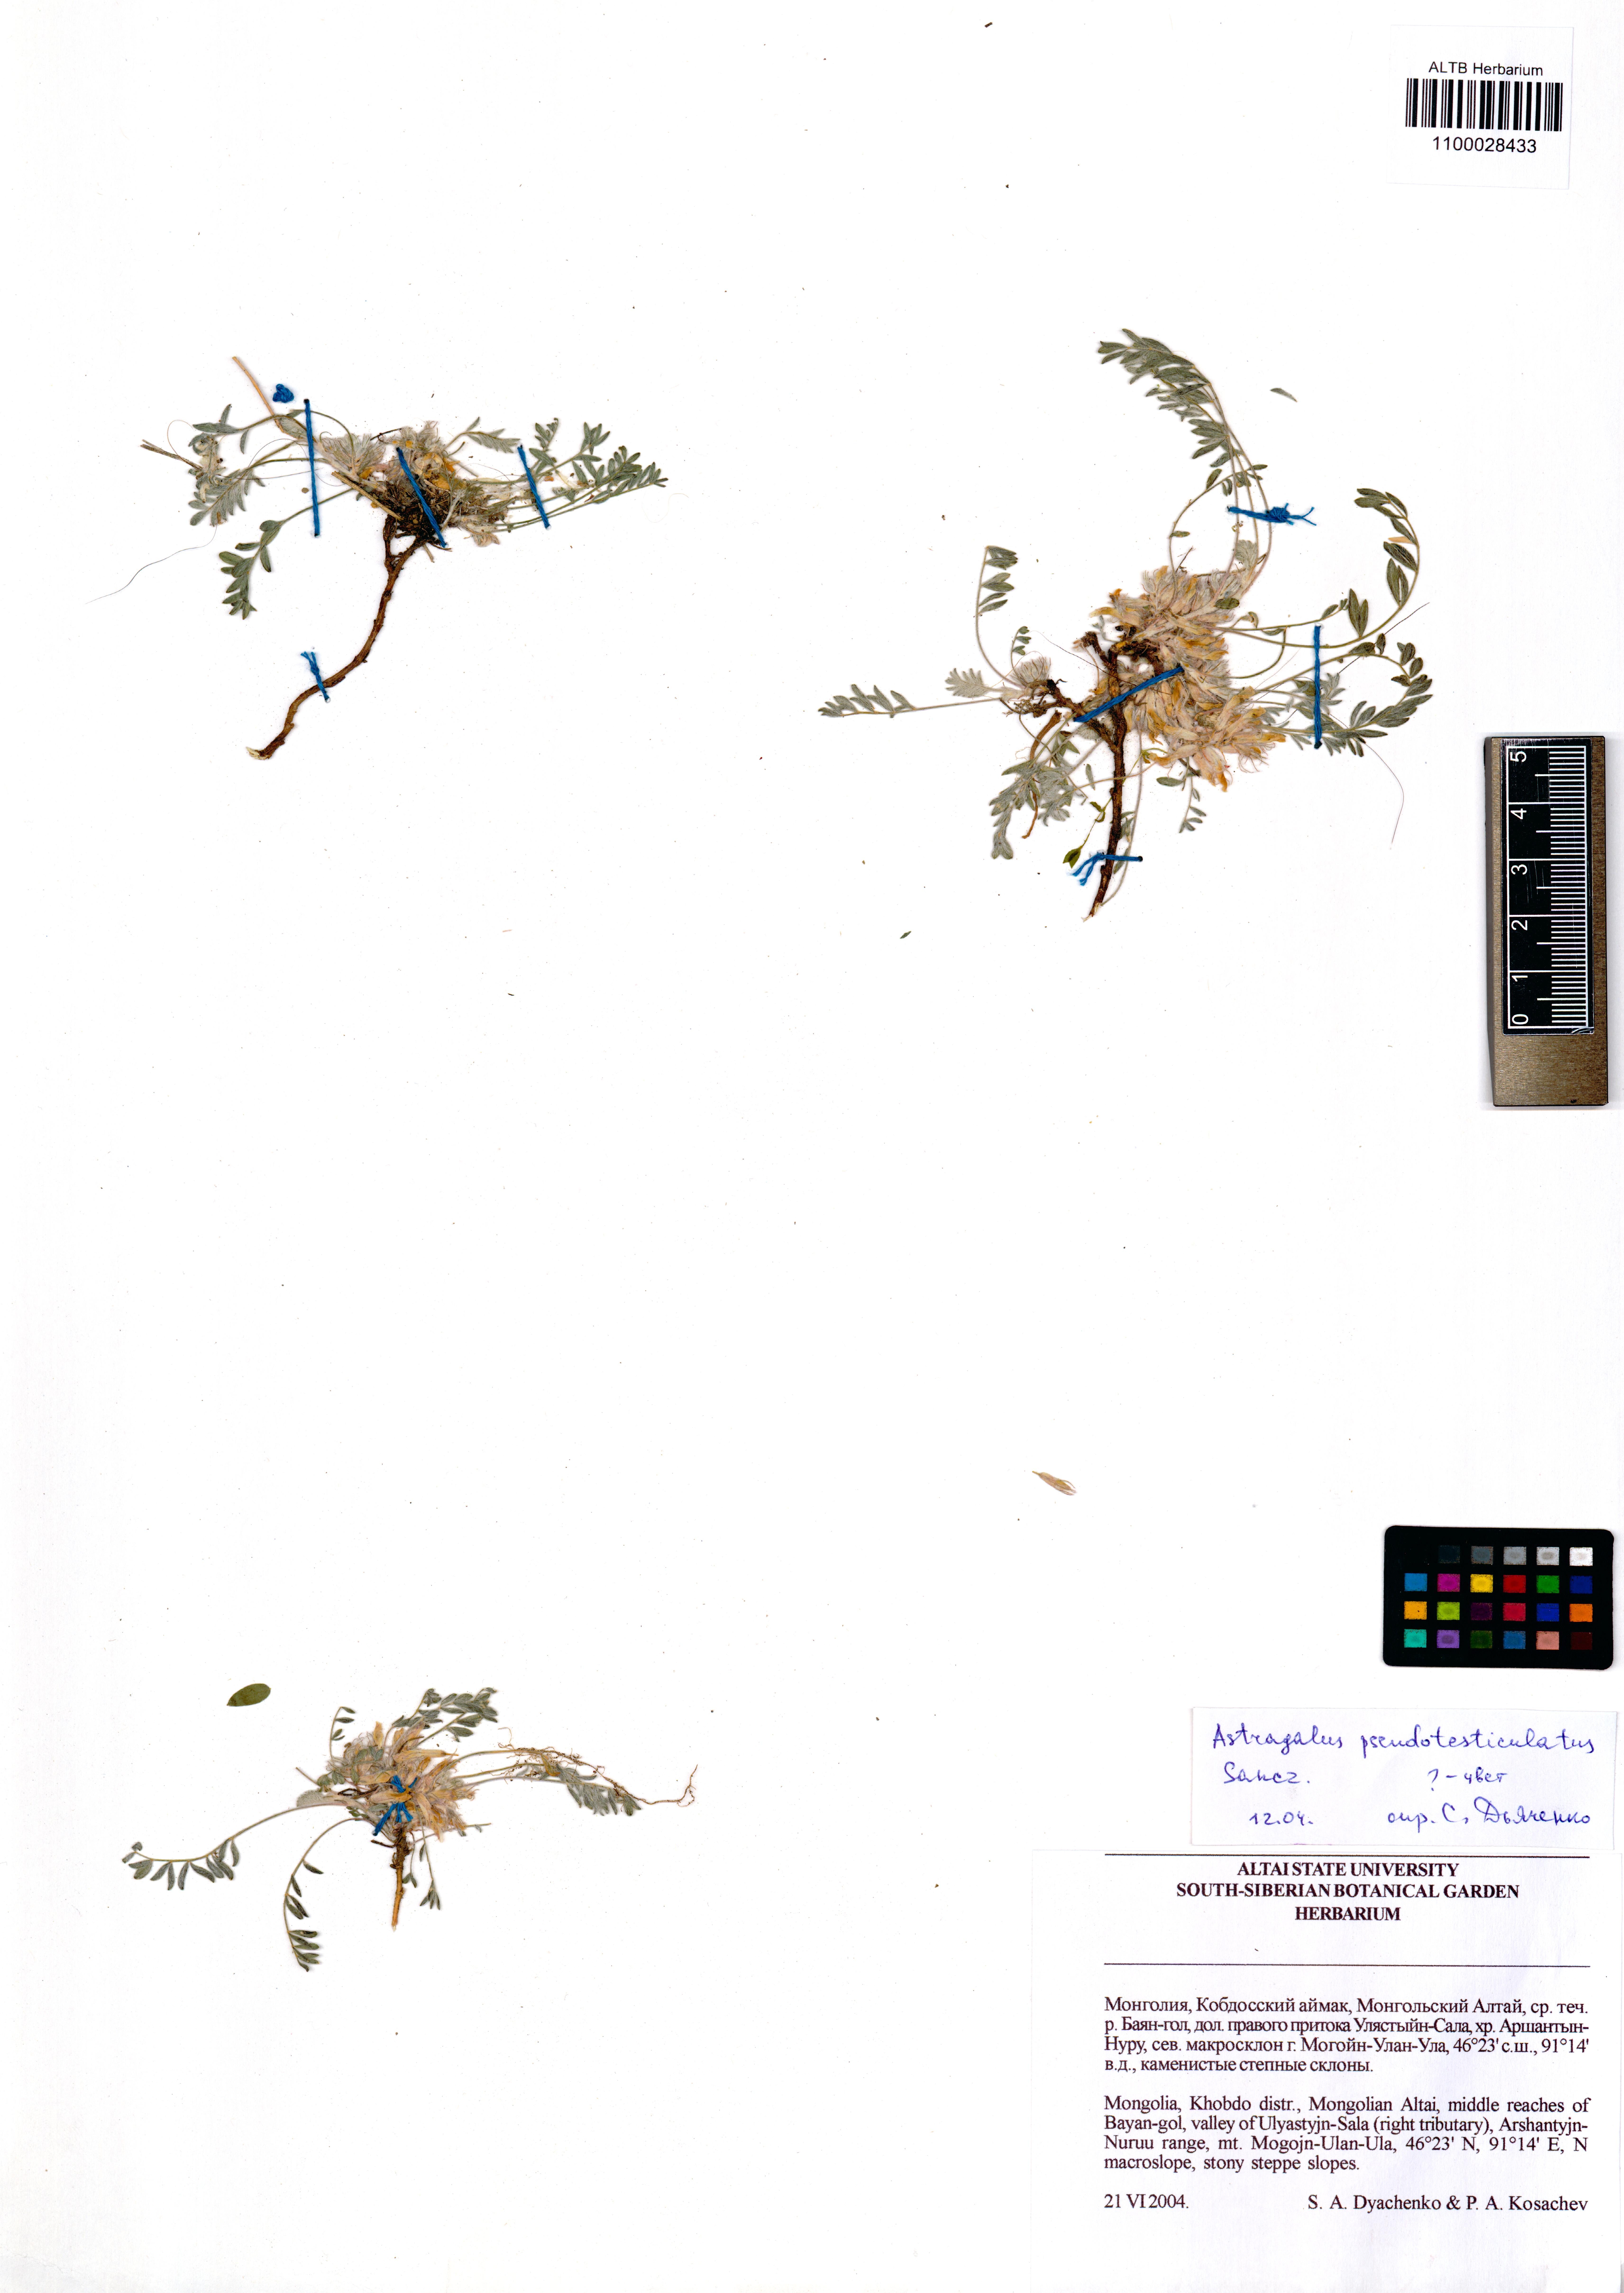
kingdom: Plantae
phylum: Tracheophyta
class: Magnoliopsida
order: Fabales
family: Fabaceae
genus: Astragalus
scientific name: Astragalus pseudotesticulatus
